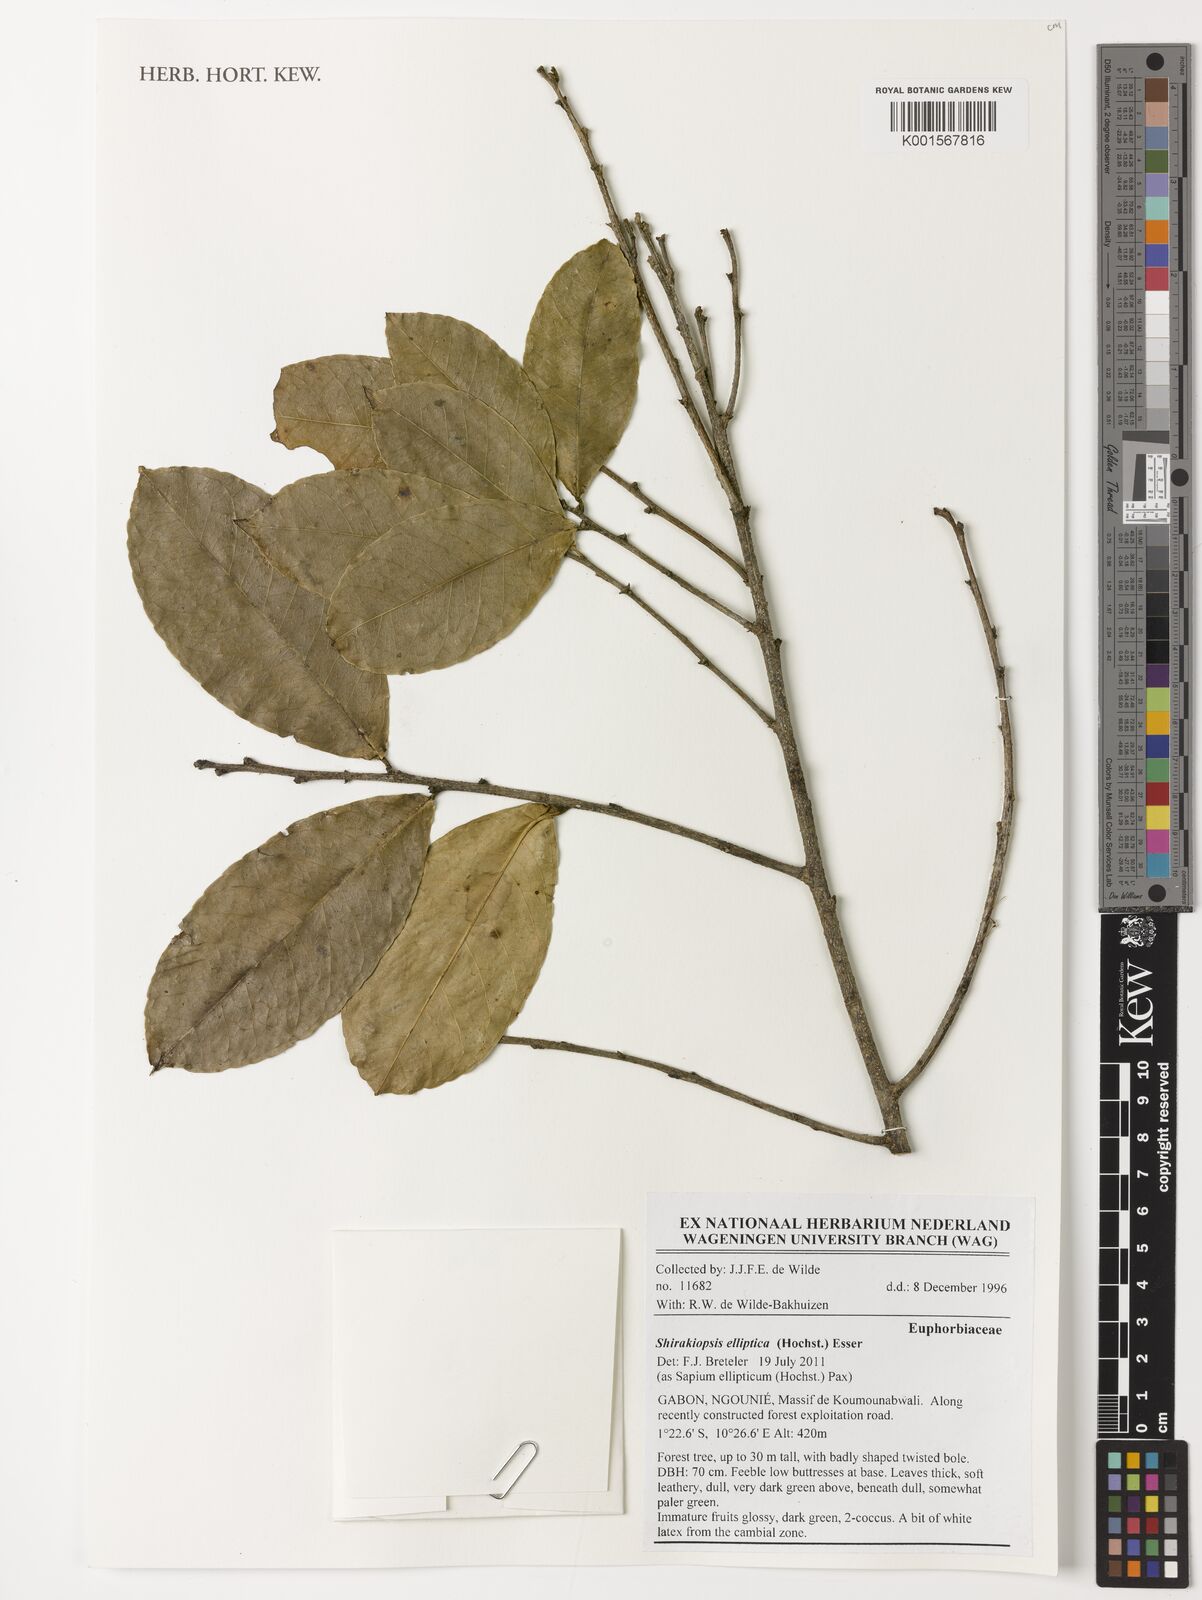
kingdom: Plantae
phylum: Tracheophyta
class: Magnoliopsida
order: Malpighiales
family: Euphorbiaceae
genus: Shirakiopsis
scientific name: Shirakiopsis elliptica
